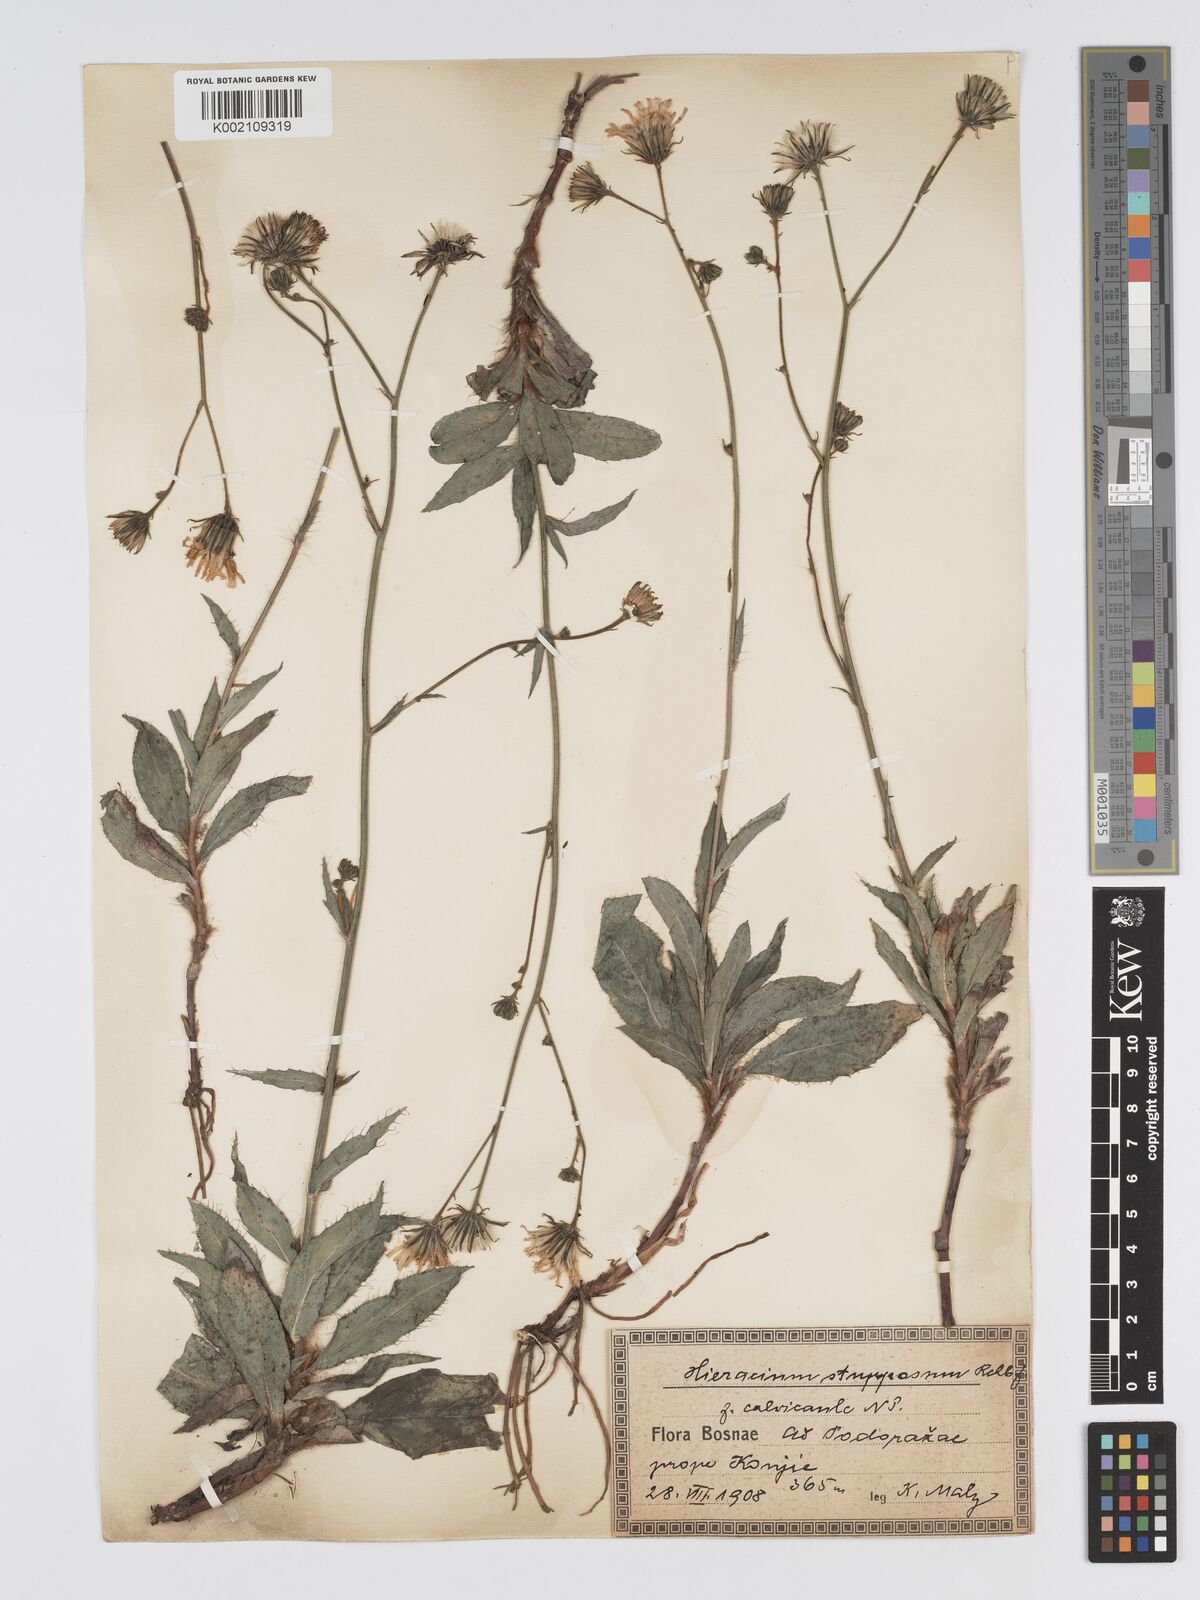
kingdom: Plantae
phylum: Tracheophyta
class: Magnoliopsida
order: Asterales
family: Asteraceae
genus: Hieracium
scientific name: Hieracium heterogynum
